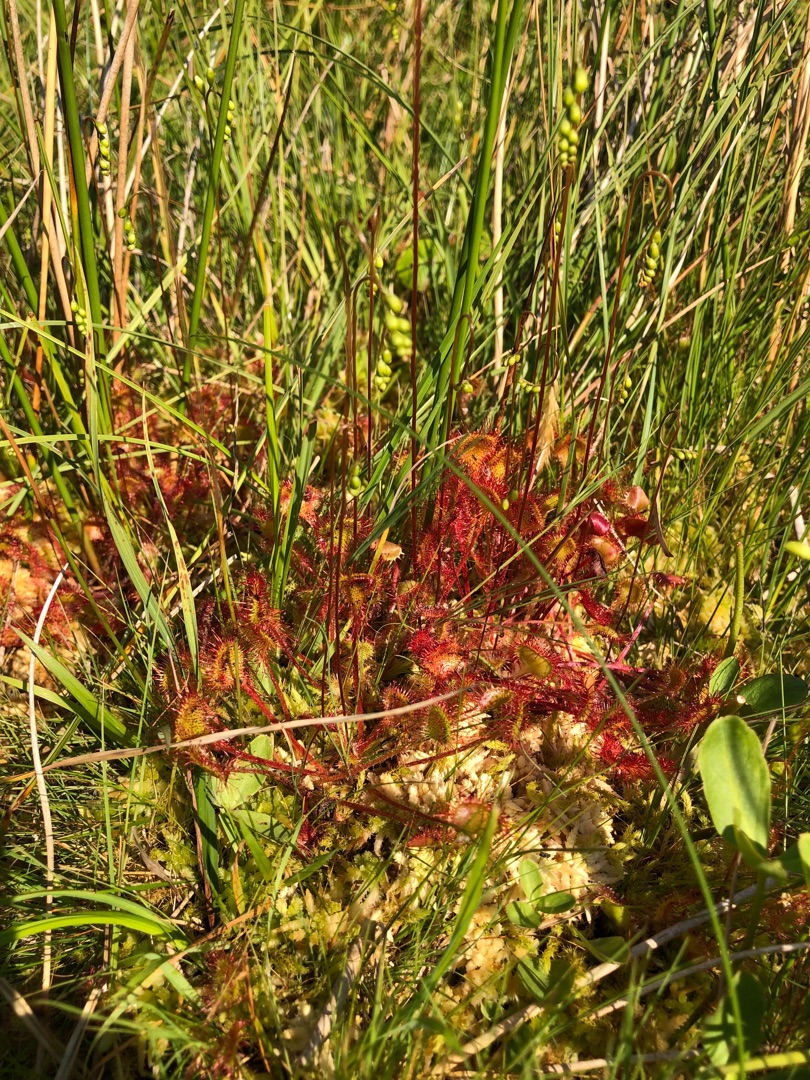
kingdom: Plantae
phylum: Tracheophyta
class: Magnoliopsida
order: Caryophyllales
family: Droseraceae
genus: Drosera
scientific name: Drosera rotundifolia
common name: Rundbladet soldug
